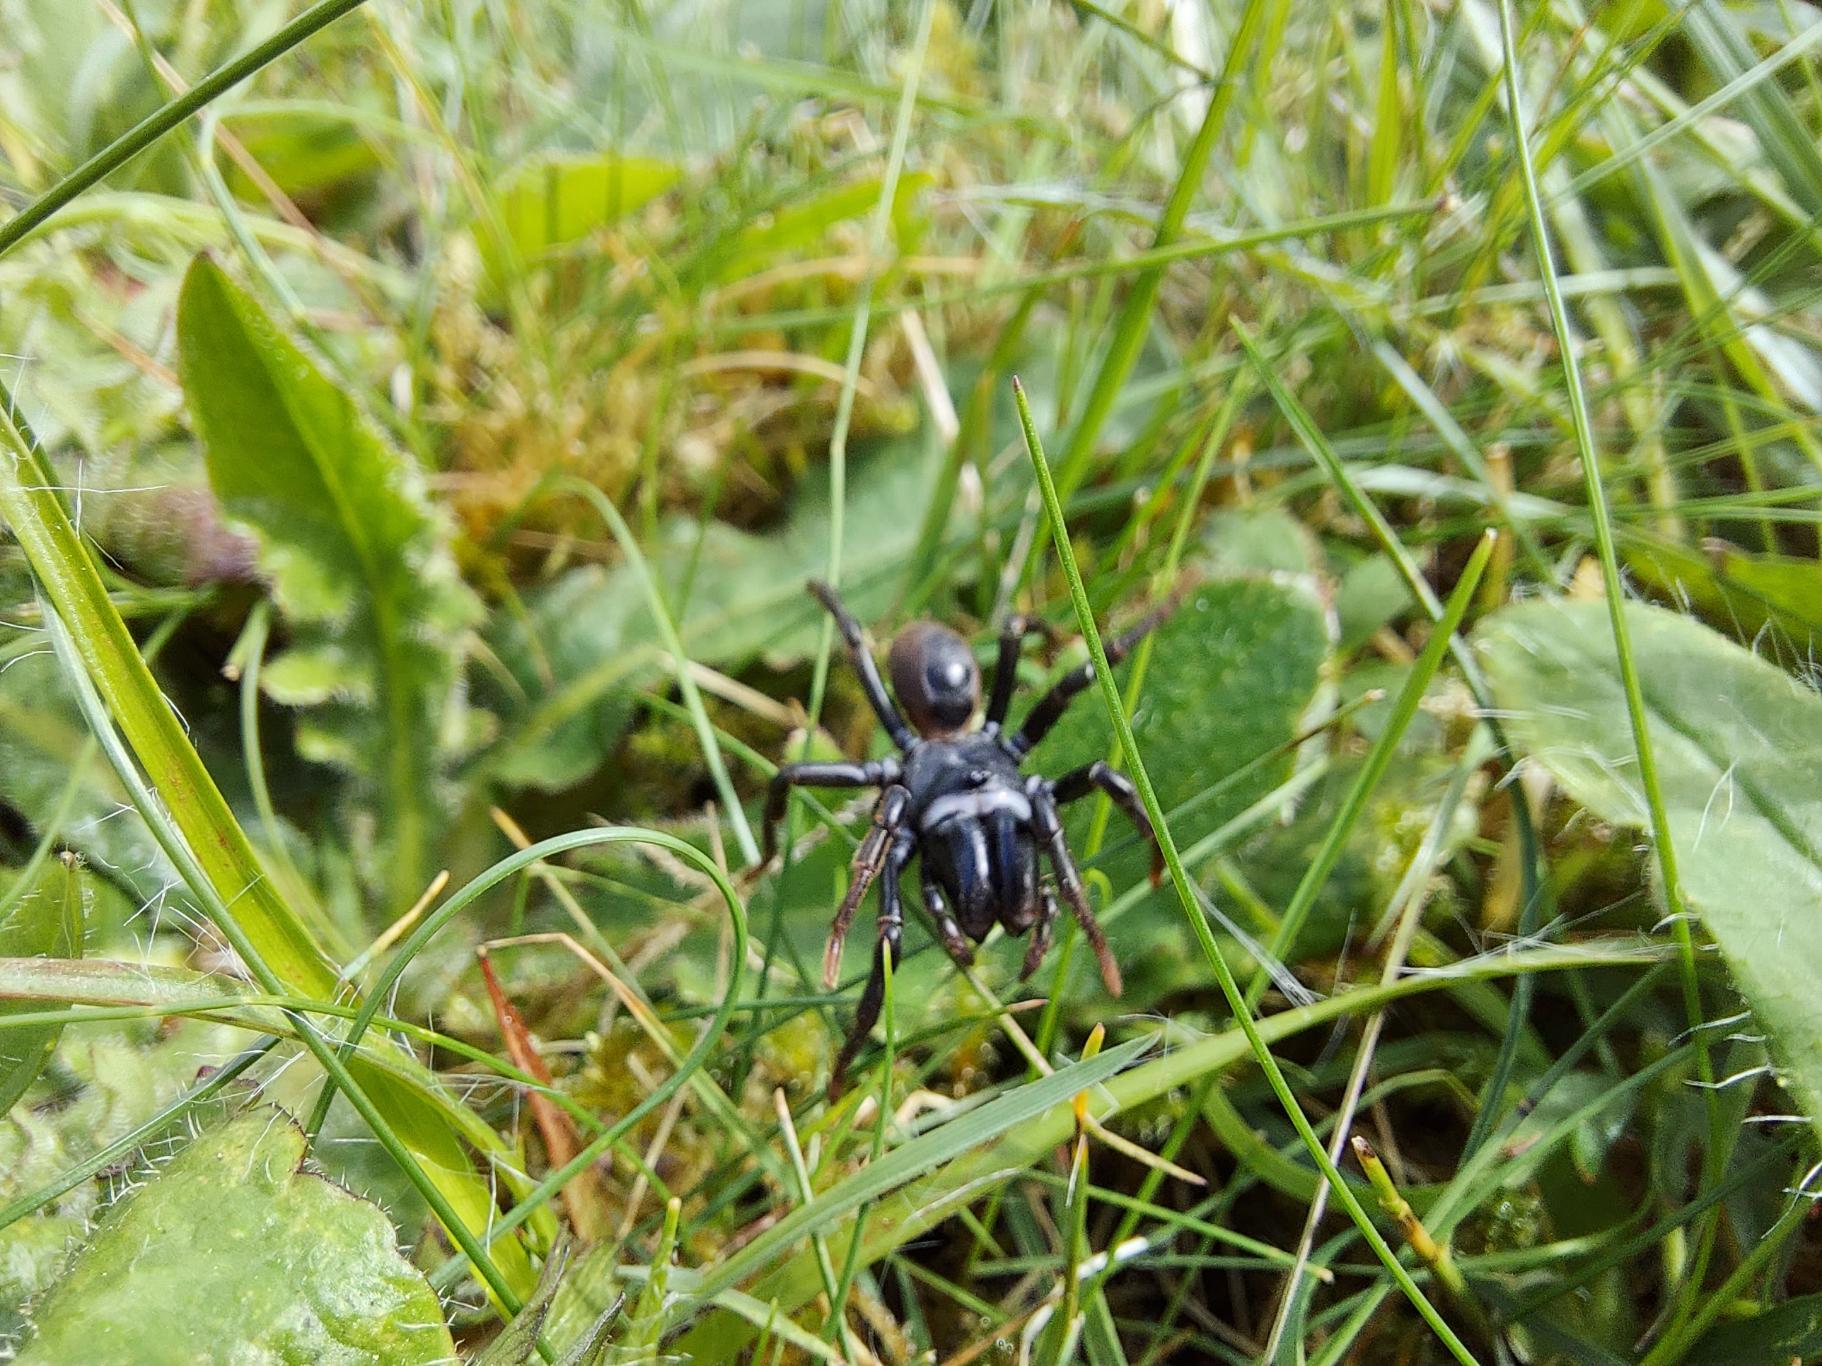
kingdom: Animalia
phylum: Arthropoda
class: Arachnida
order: Araneae
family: Atypidae
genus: Atypus
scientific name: Atypus affinis
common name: Nordlig fugleedderkop
